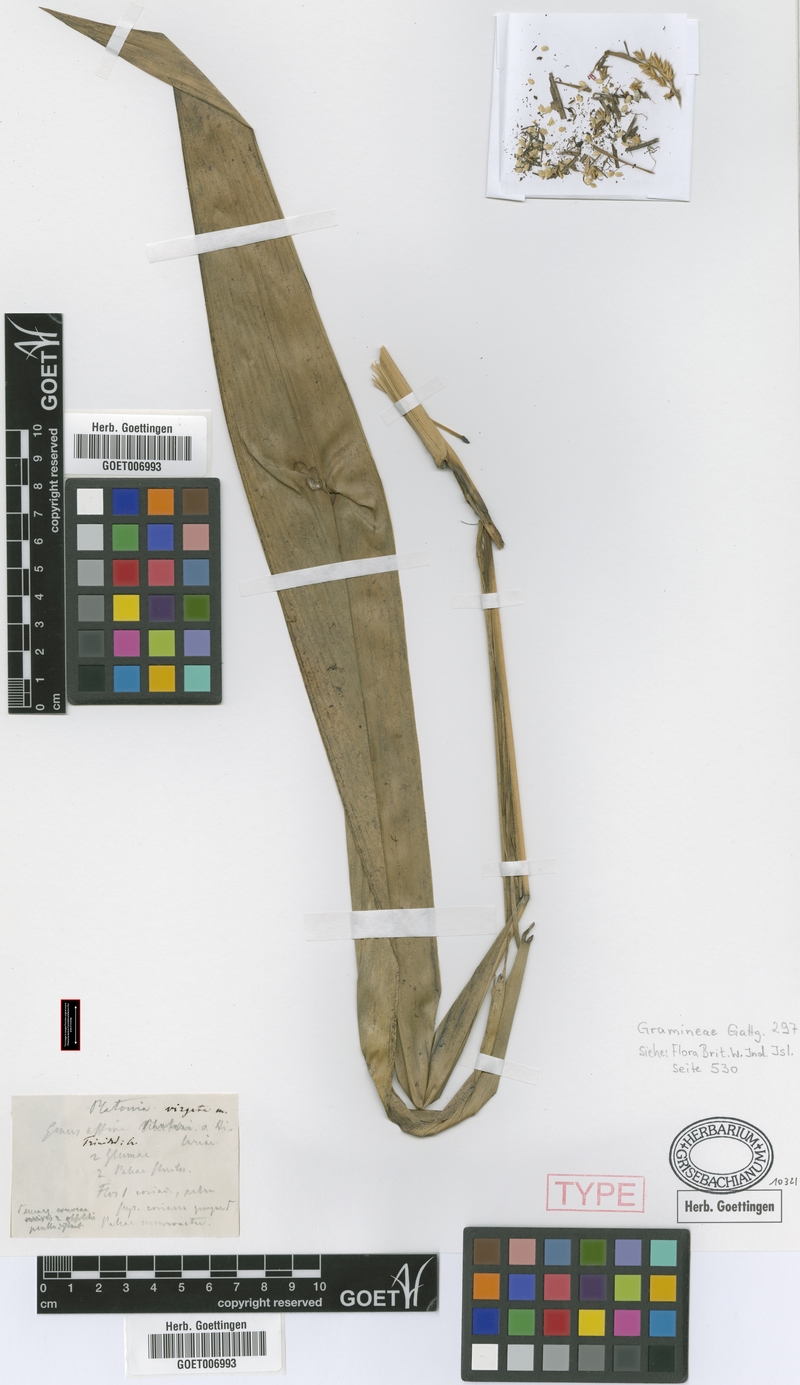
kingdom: Plantae
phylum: Tracheophyta
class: Liliopsida
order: Poales
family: Poaceae
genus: Chusquea
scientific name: Chusquea cylindrica
